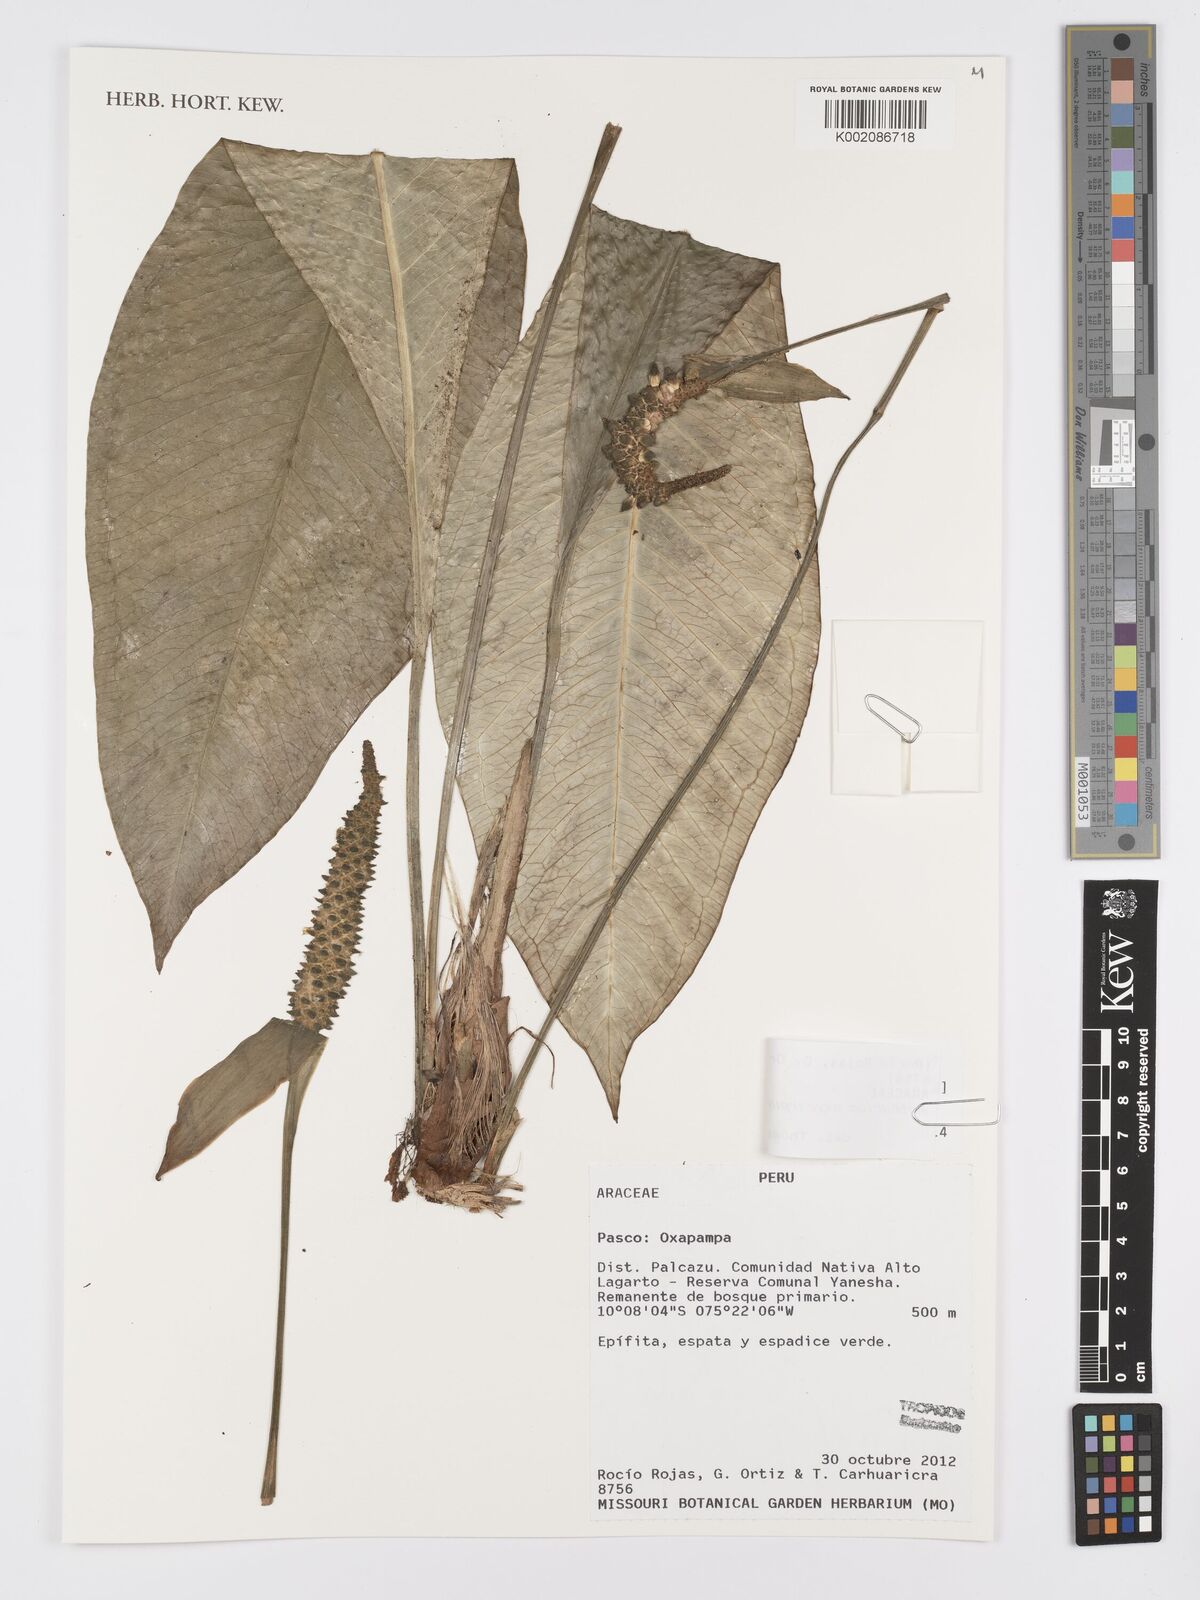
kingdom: Plantae
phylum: Tracheophyta
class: Liliopsida
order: Alismatales
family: Araceae
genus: Anthurium
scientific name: Anthurium oxycarpum
